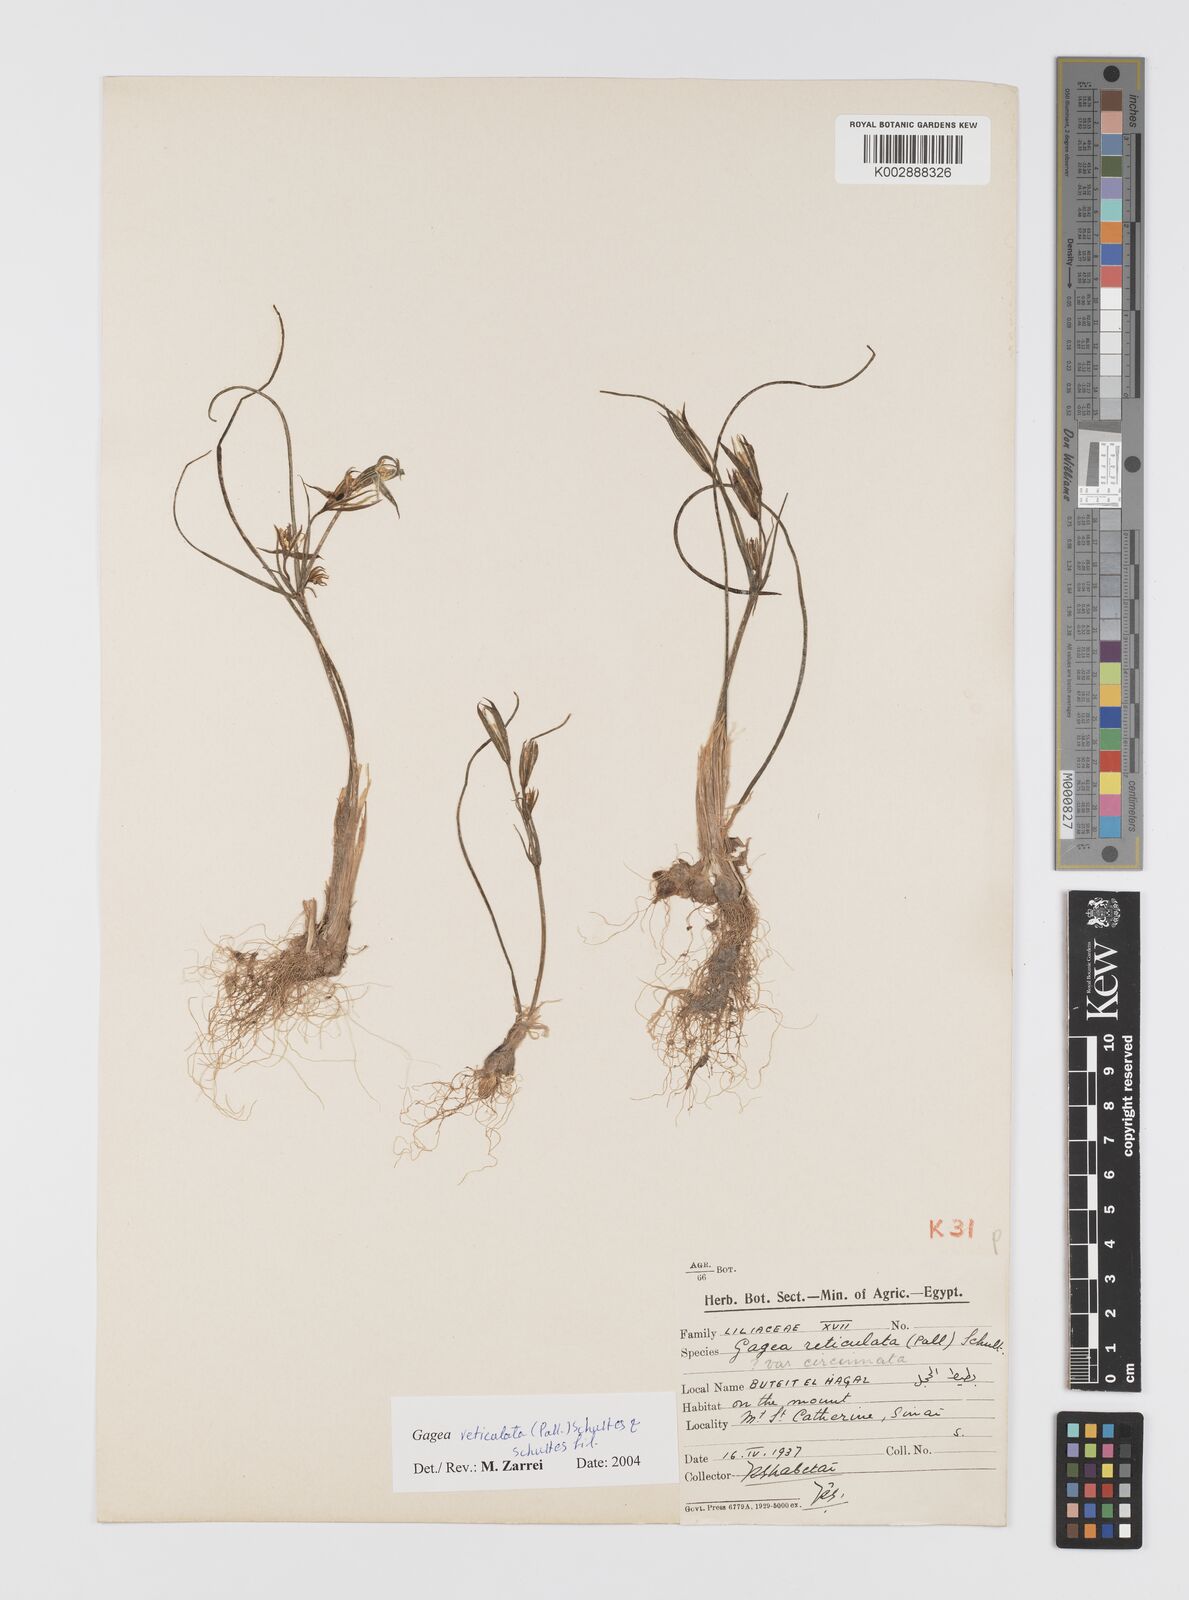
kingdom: Plantae
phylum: Tracheophyta
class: Liliopsida
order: Liliales
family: Liliaceae
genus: Gagea
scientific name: Gagea reticulata
